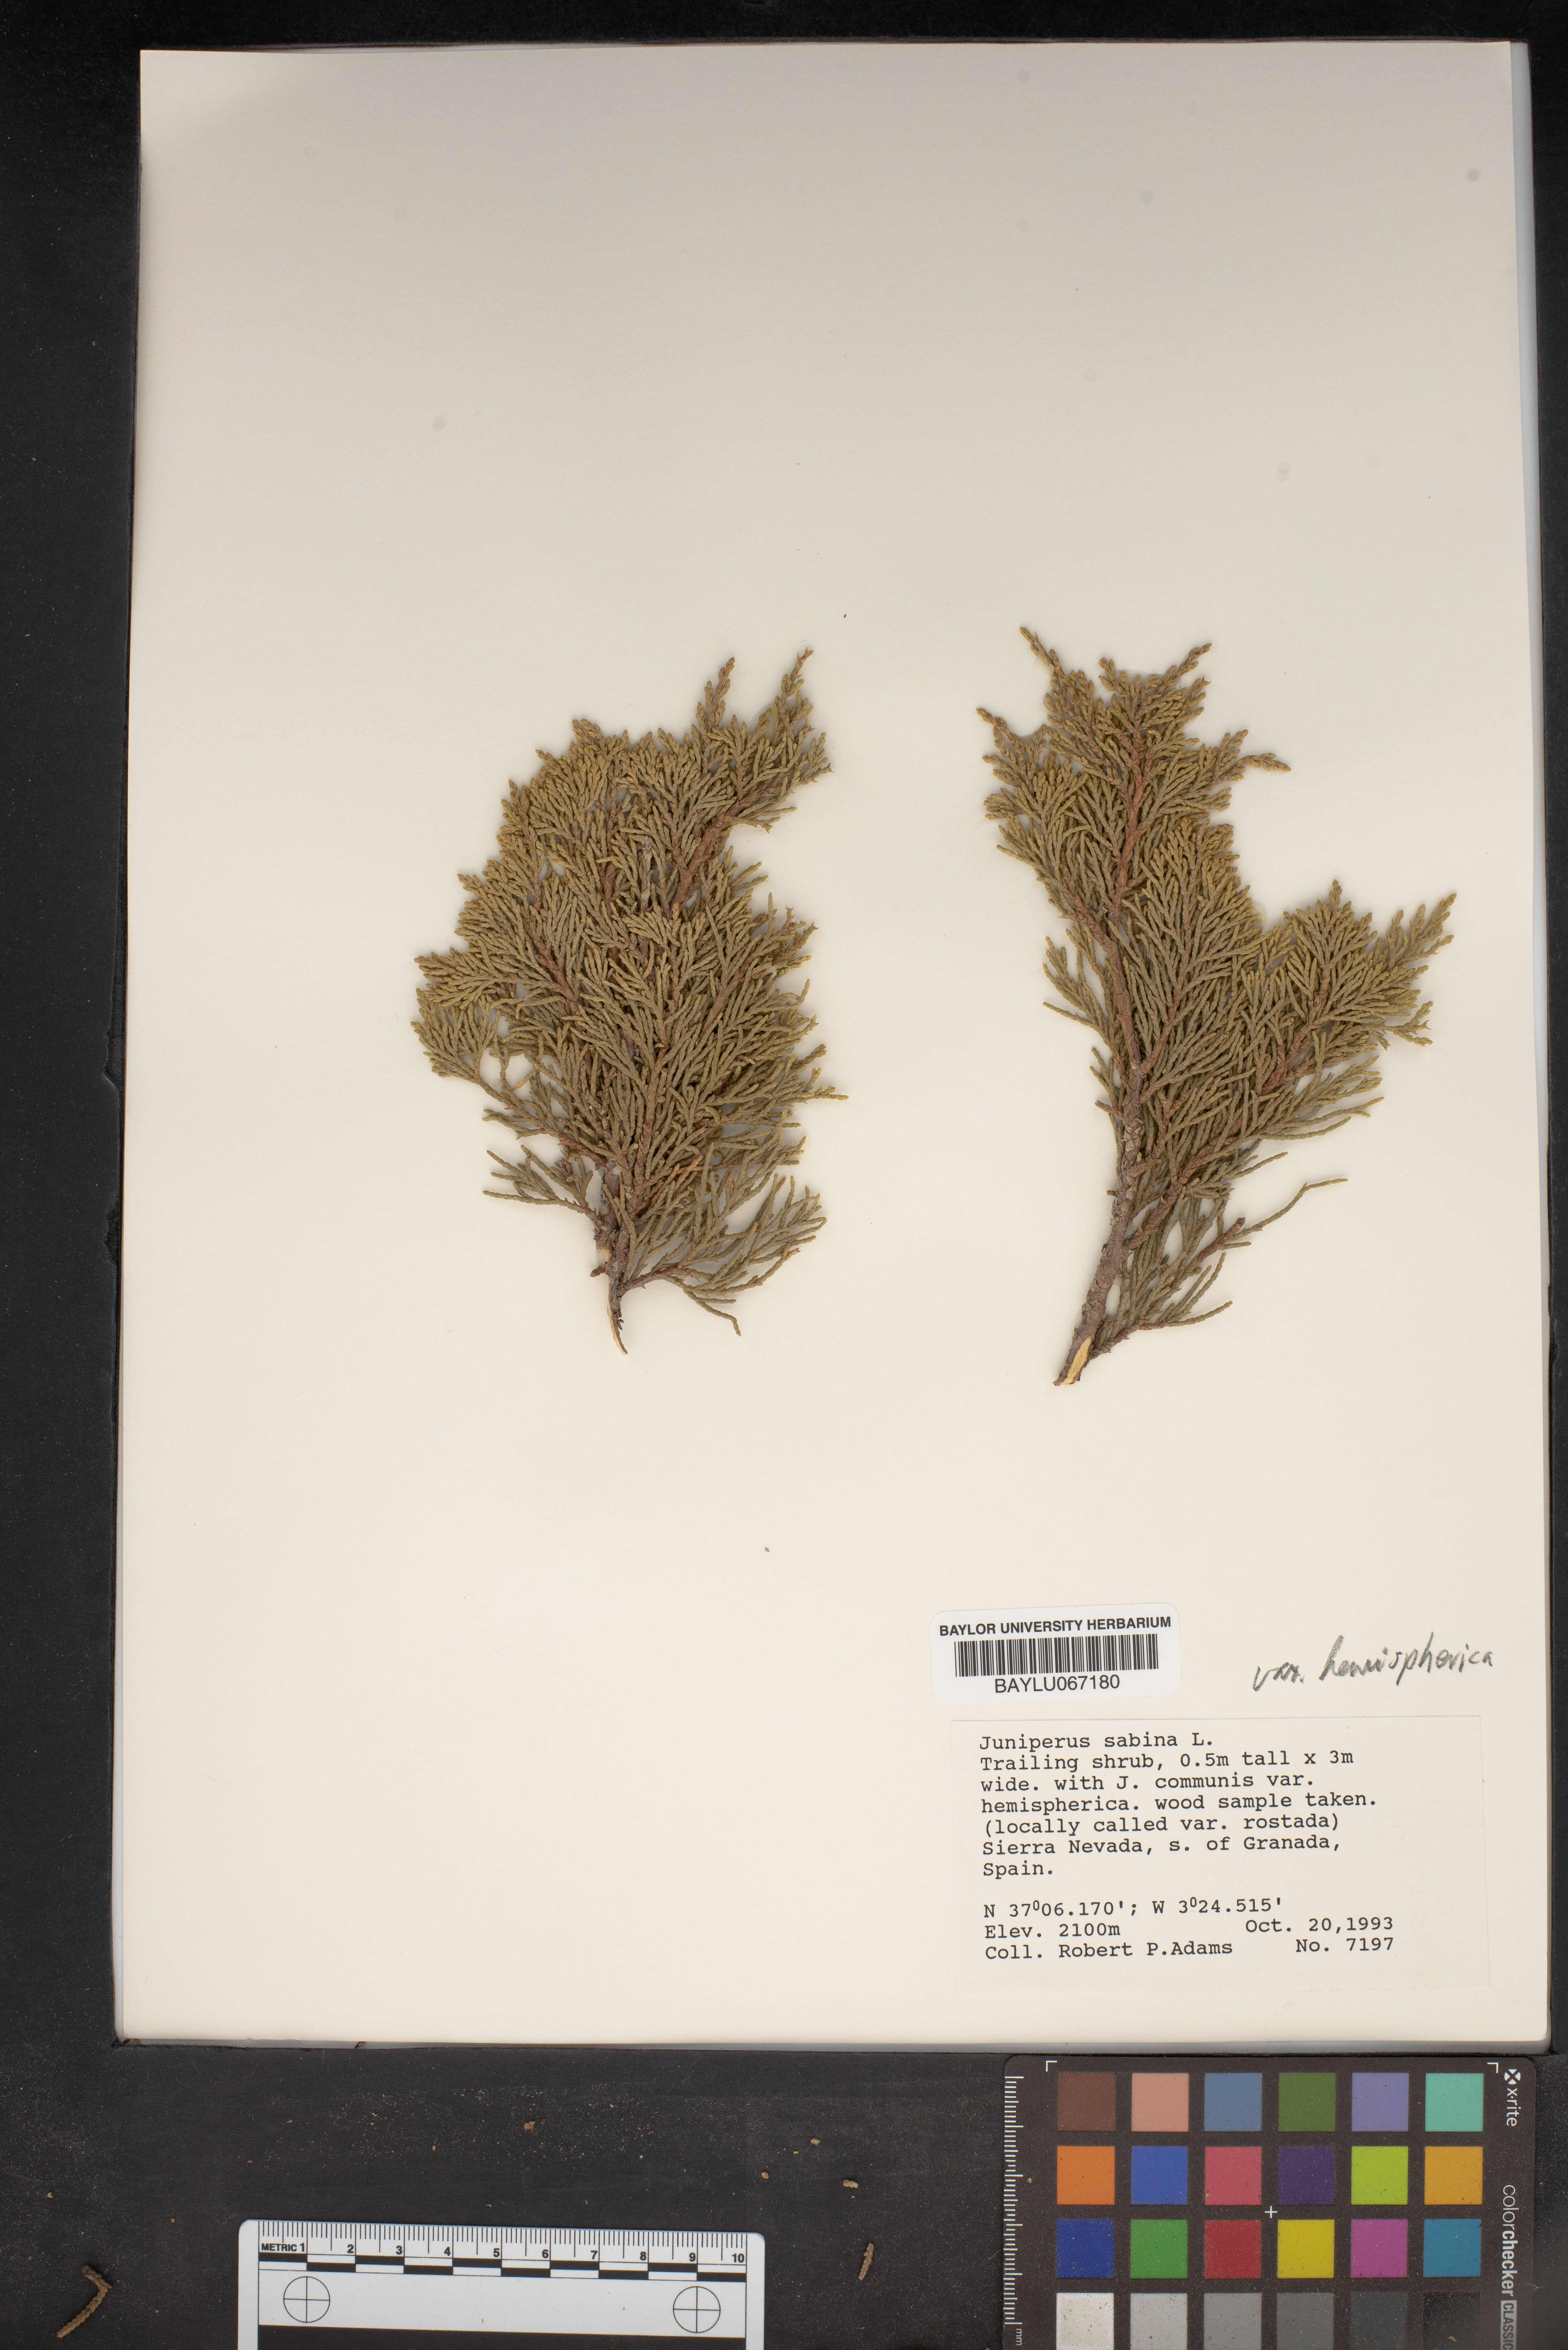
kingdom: Plantae
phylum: Tracheophyta
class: Pinopsida
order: Pinales
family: Cupressaceae
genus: Juniperus
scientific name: Juniperus sabina
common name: Savin
